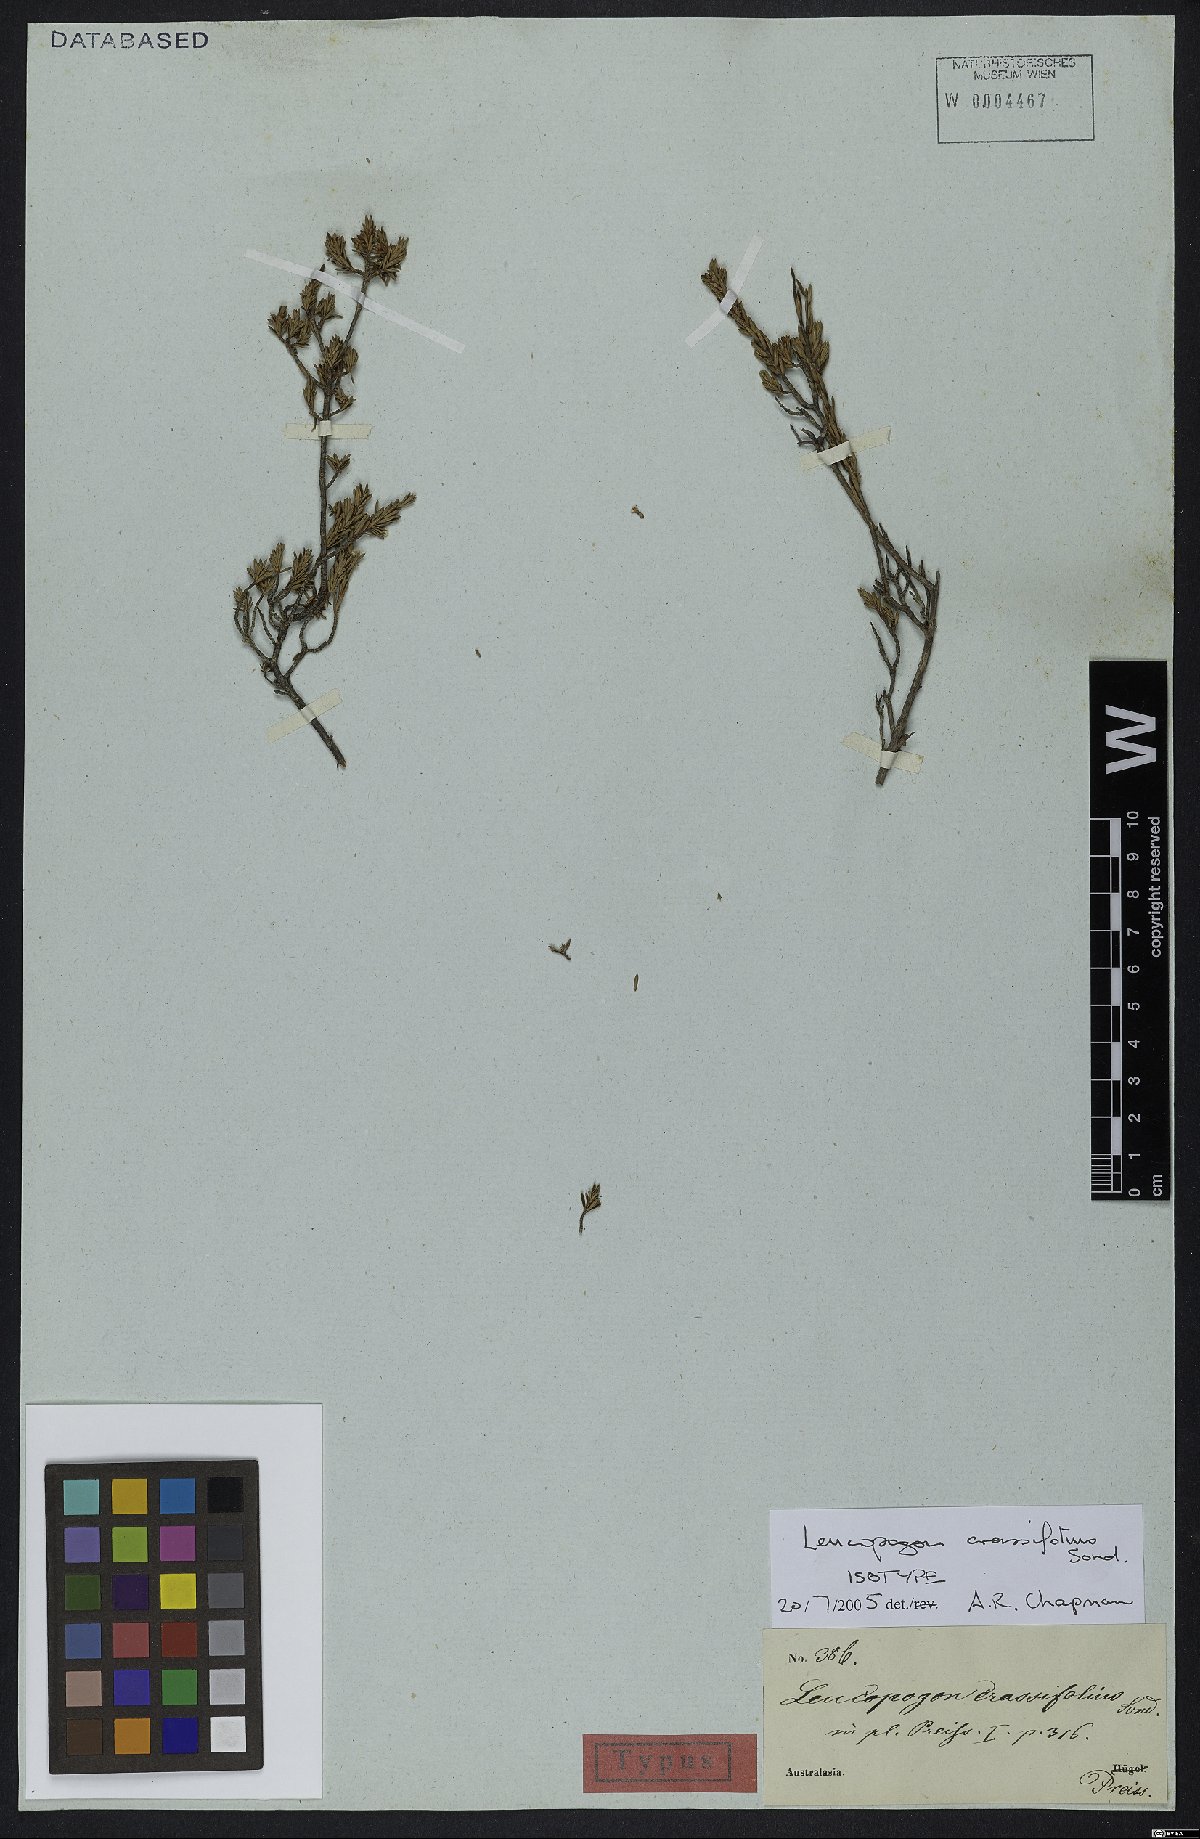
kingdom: Plantae
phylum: Tracheophyta
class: Magnoliopsida
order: Ericales
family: Ericaceae
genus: Styphelia
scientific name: Styphelia crassifolia
